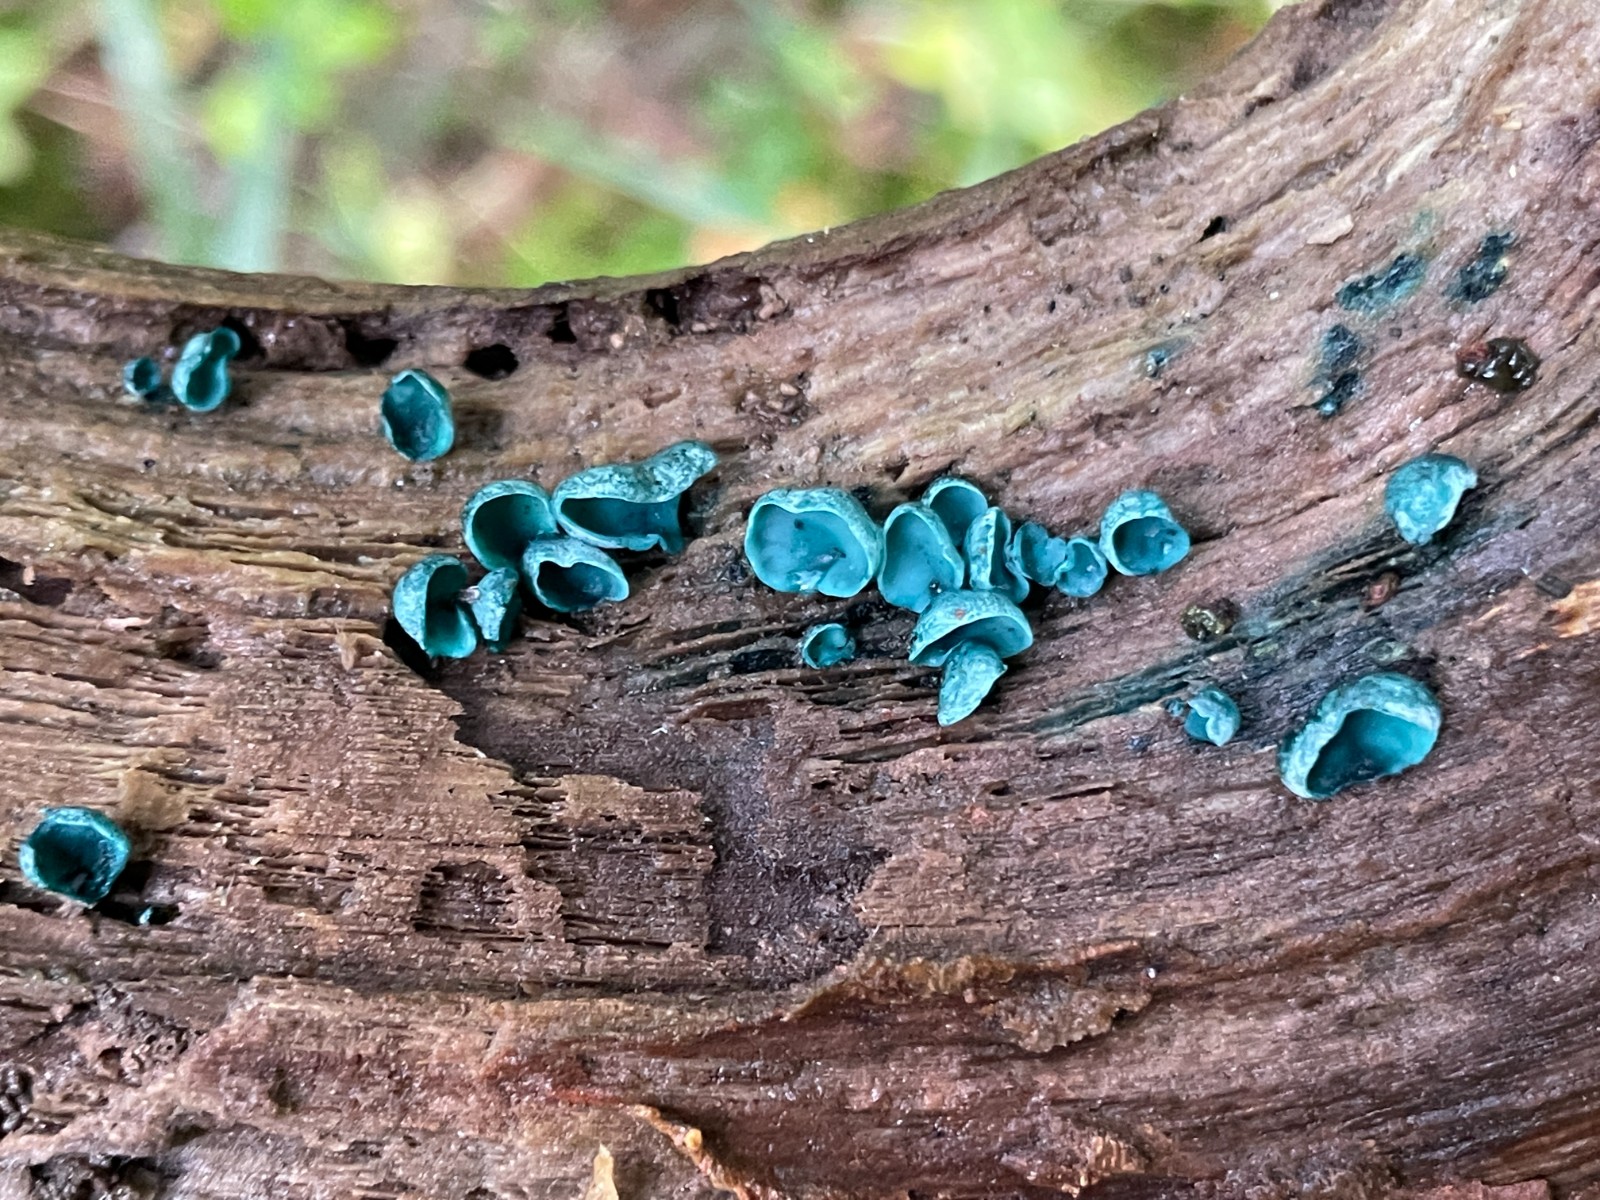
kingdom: Fungi
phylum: Ascomycota
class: Leotiomycetes
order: Helotiales
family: Chlorociboriaceae
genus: Chlorociboria
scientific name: Chlorociboria aeruginascens
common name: almindelig grønskive
